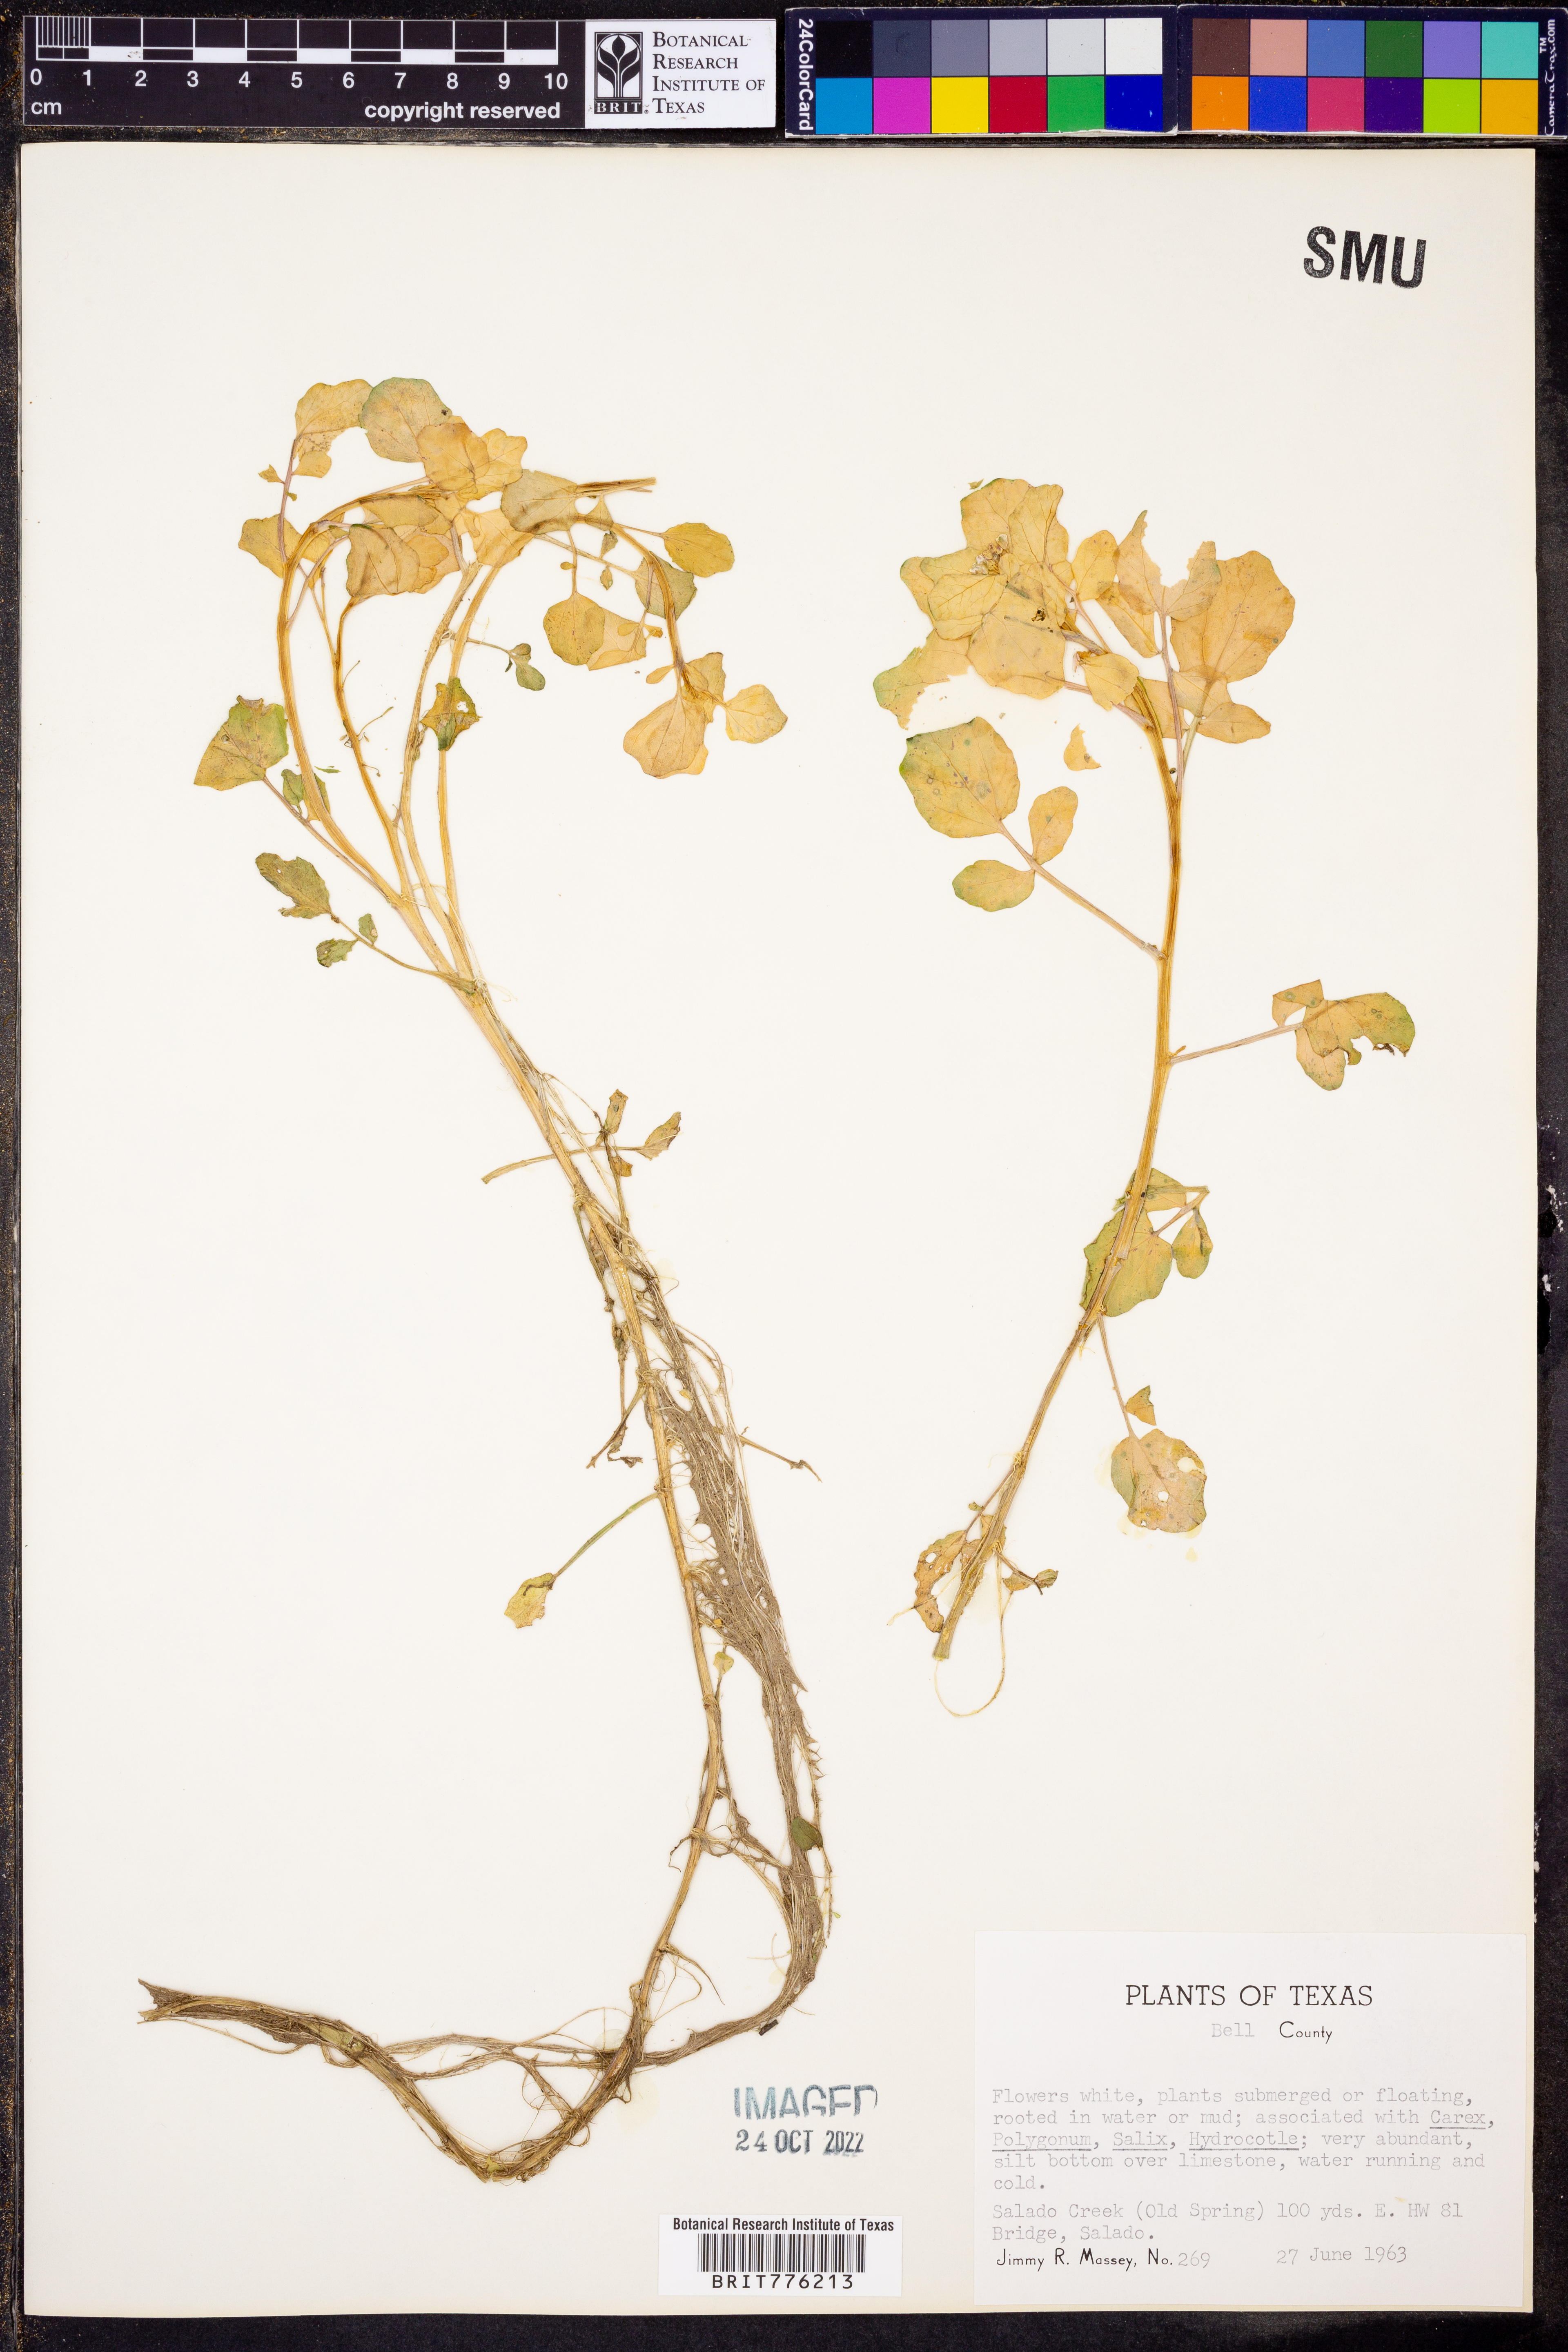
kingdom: Plantae
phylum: Tracheophyta
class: Magnoliopsida
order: Brassicales
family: Brassicaceae
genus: Nasturtium
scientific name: Nasturtium officinale
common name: Watercress
